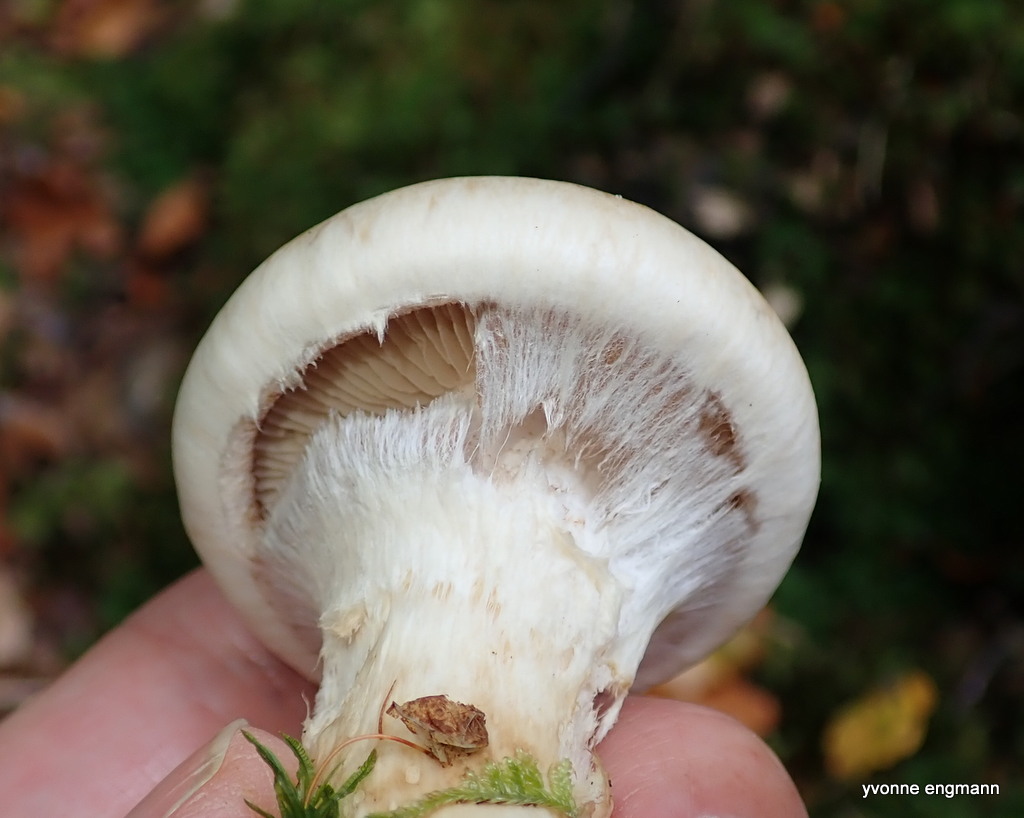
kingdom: Fungi
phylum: Basidiomycota
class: Agaricomycetes
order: Agaricales
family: Hymenogastraceae
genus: Hebeloma
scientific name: Hebeloma radicosum
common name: pælerods-tåreblad
